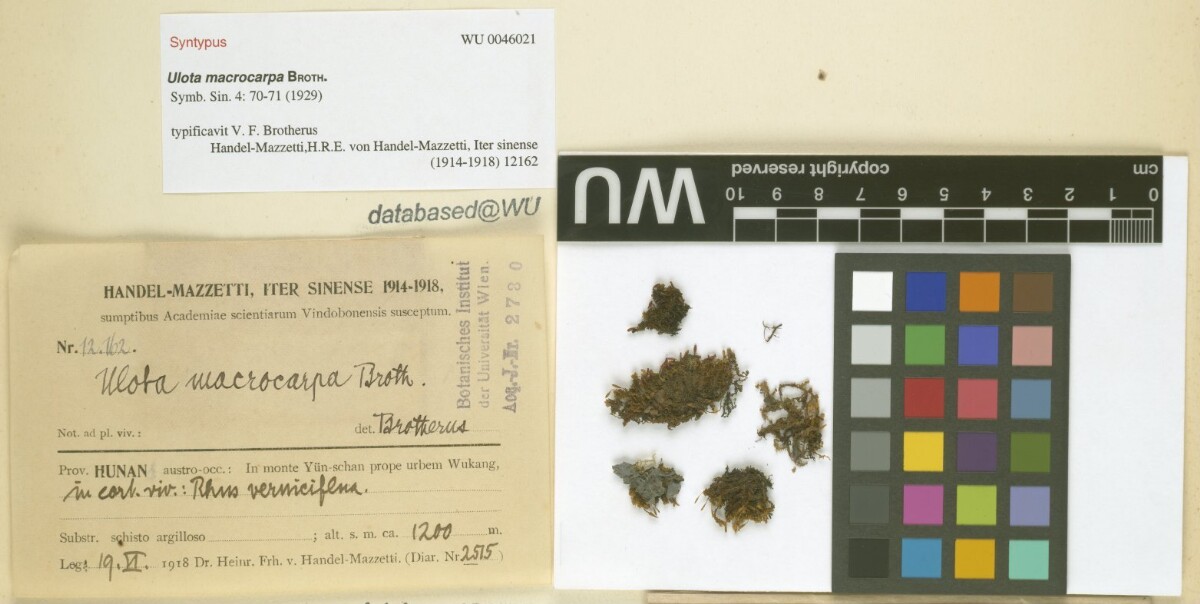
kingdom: Plantae
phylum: Bryophyta
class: Bryopsida
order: Orthotrichales
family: Orthotrichaceae
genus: Ulota
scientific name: Ulota crispa
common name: Crisped pincushion moss
